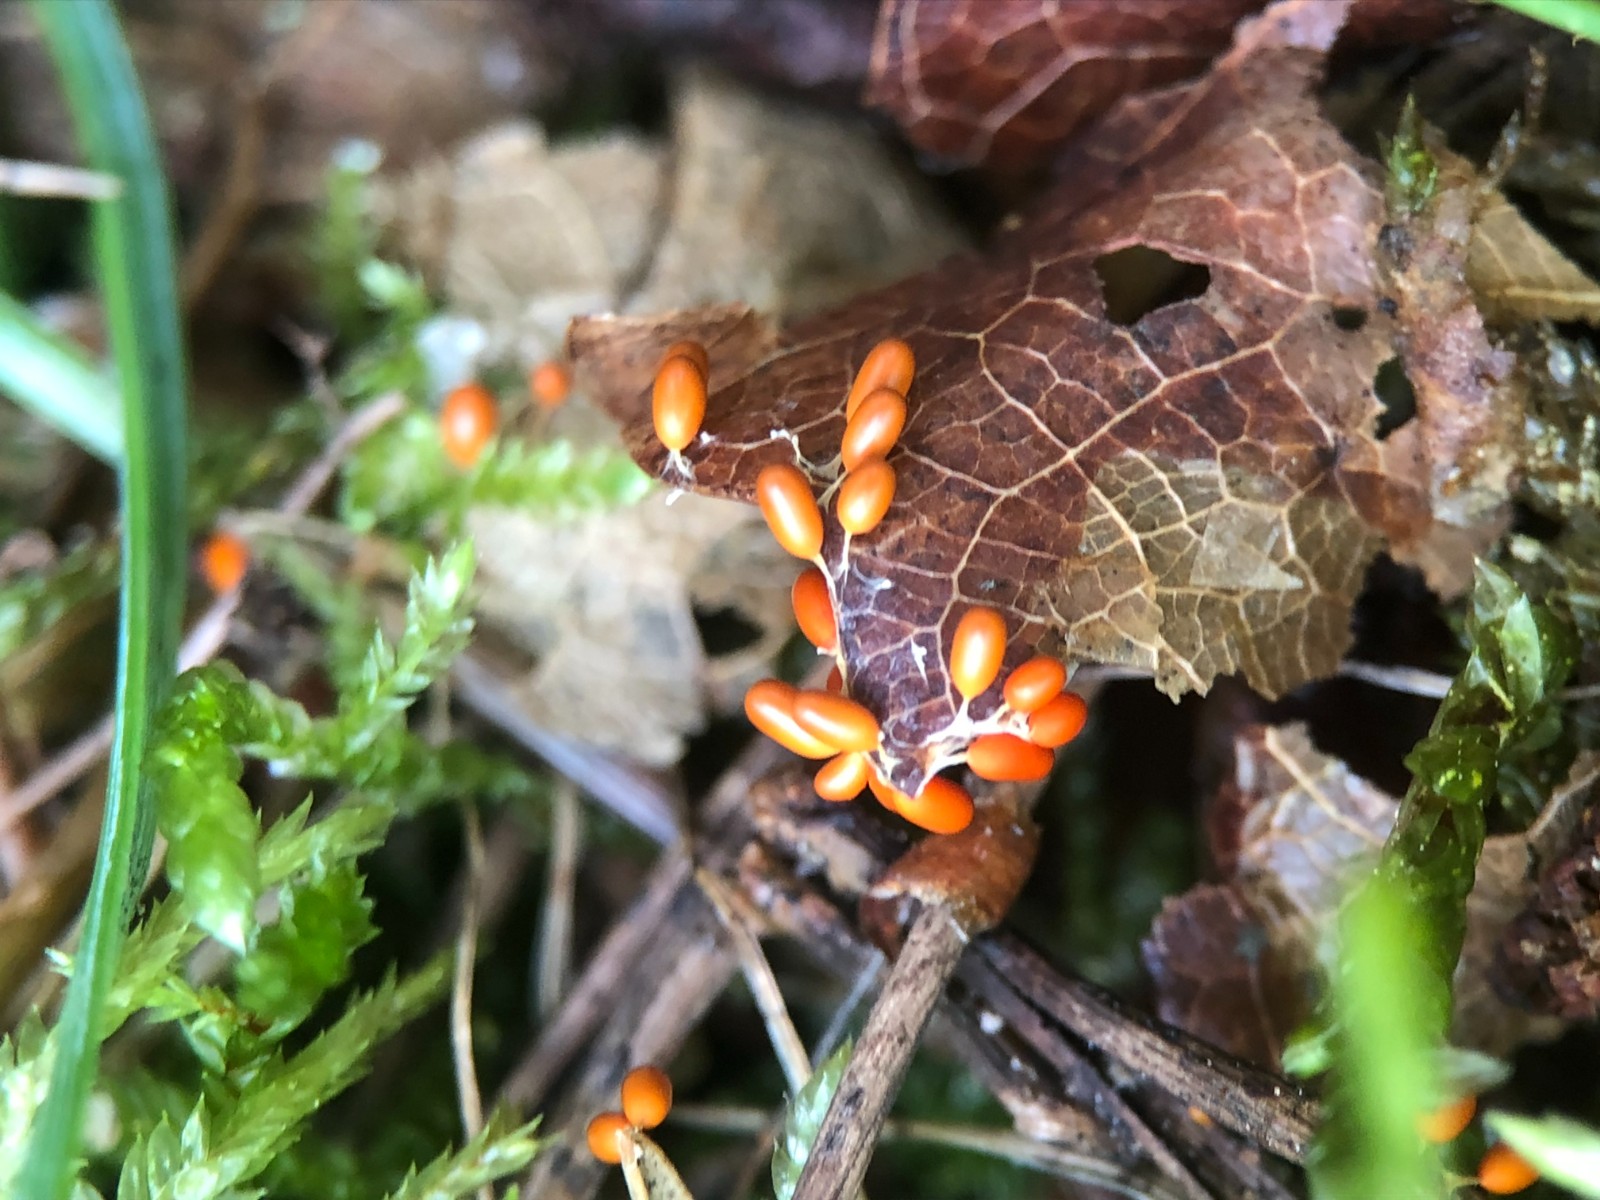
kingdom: Protozoa
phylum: Mycetozoa
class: Myxomycetes
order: Physarales
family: Physaraceae
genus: Leocarpus
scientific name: Leocarpus fragilis
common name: poleret glatfrø
